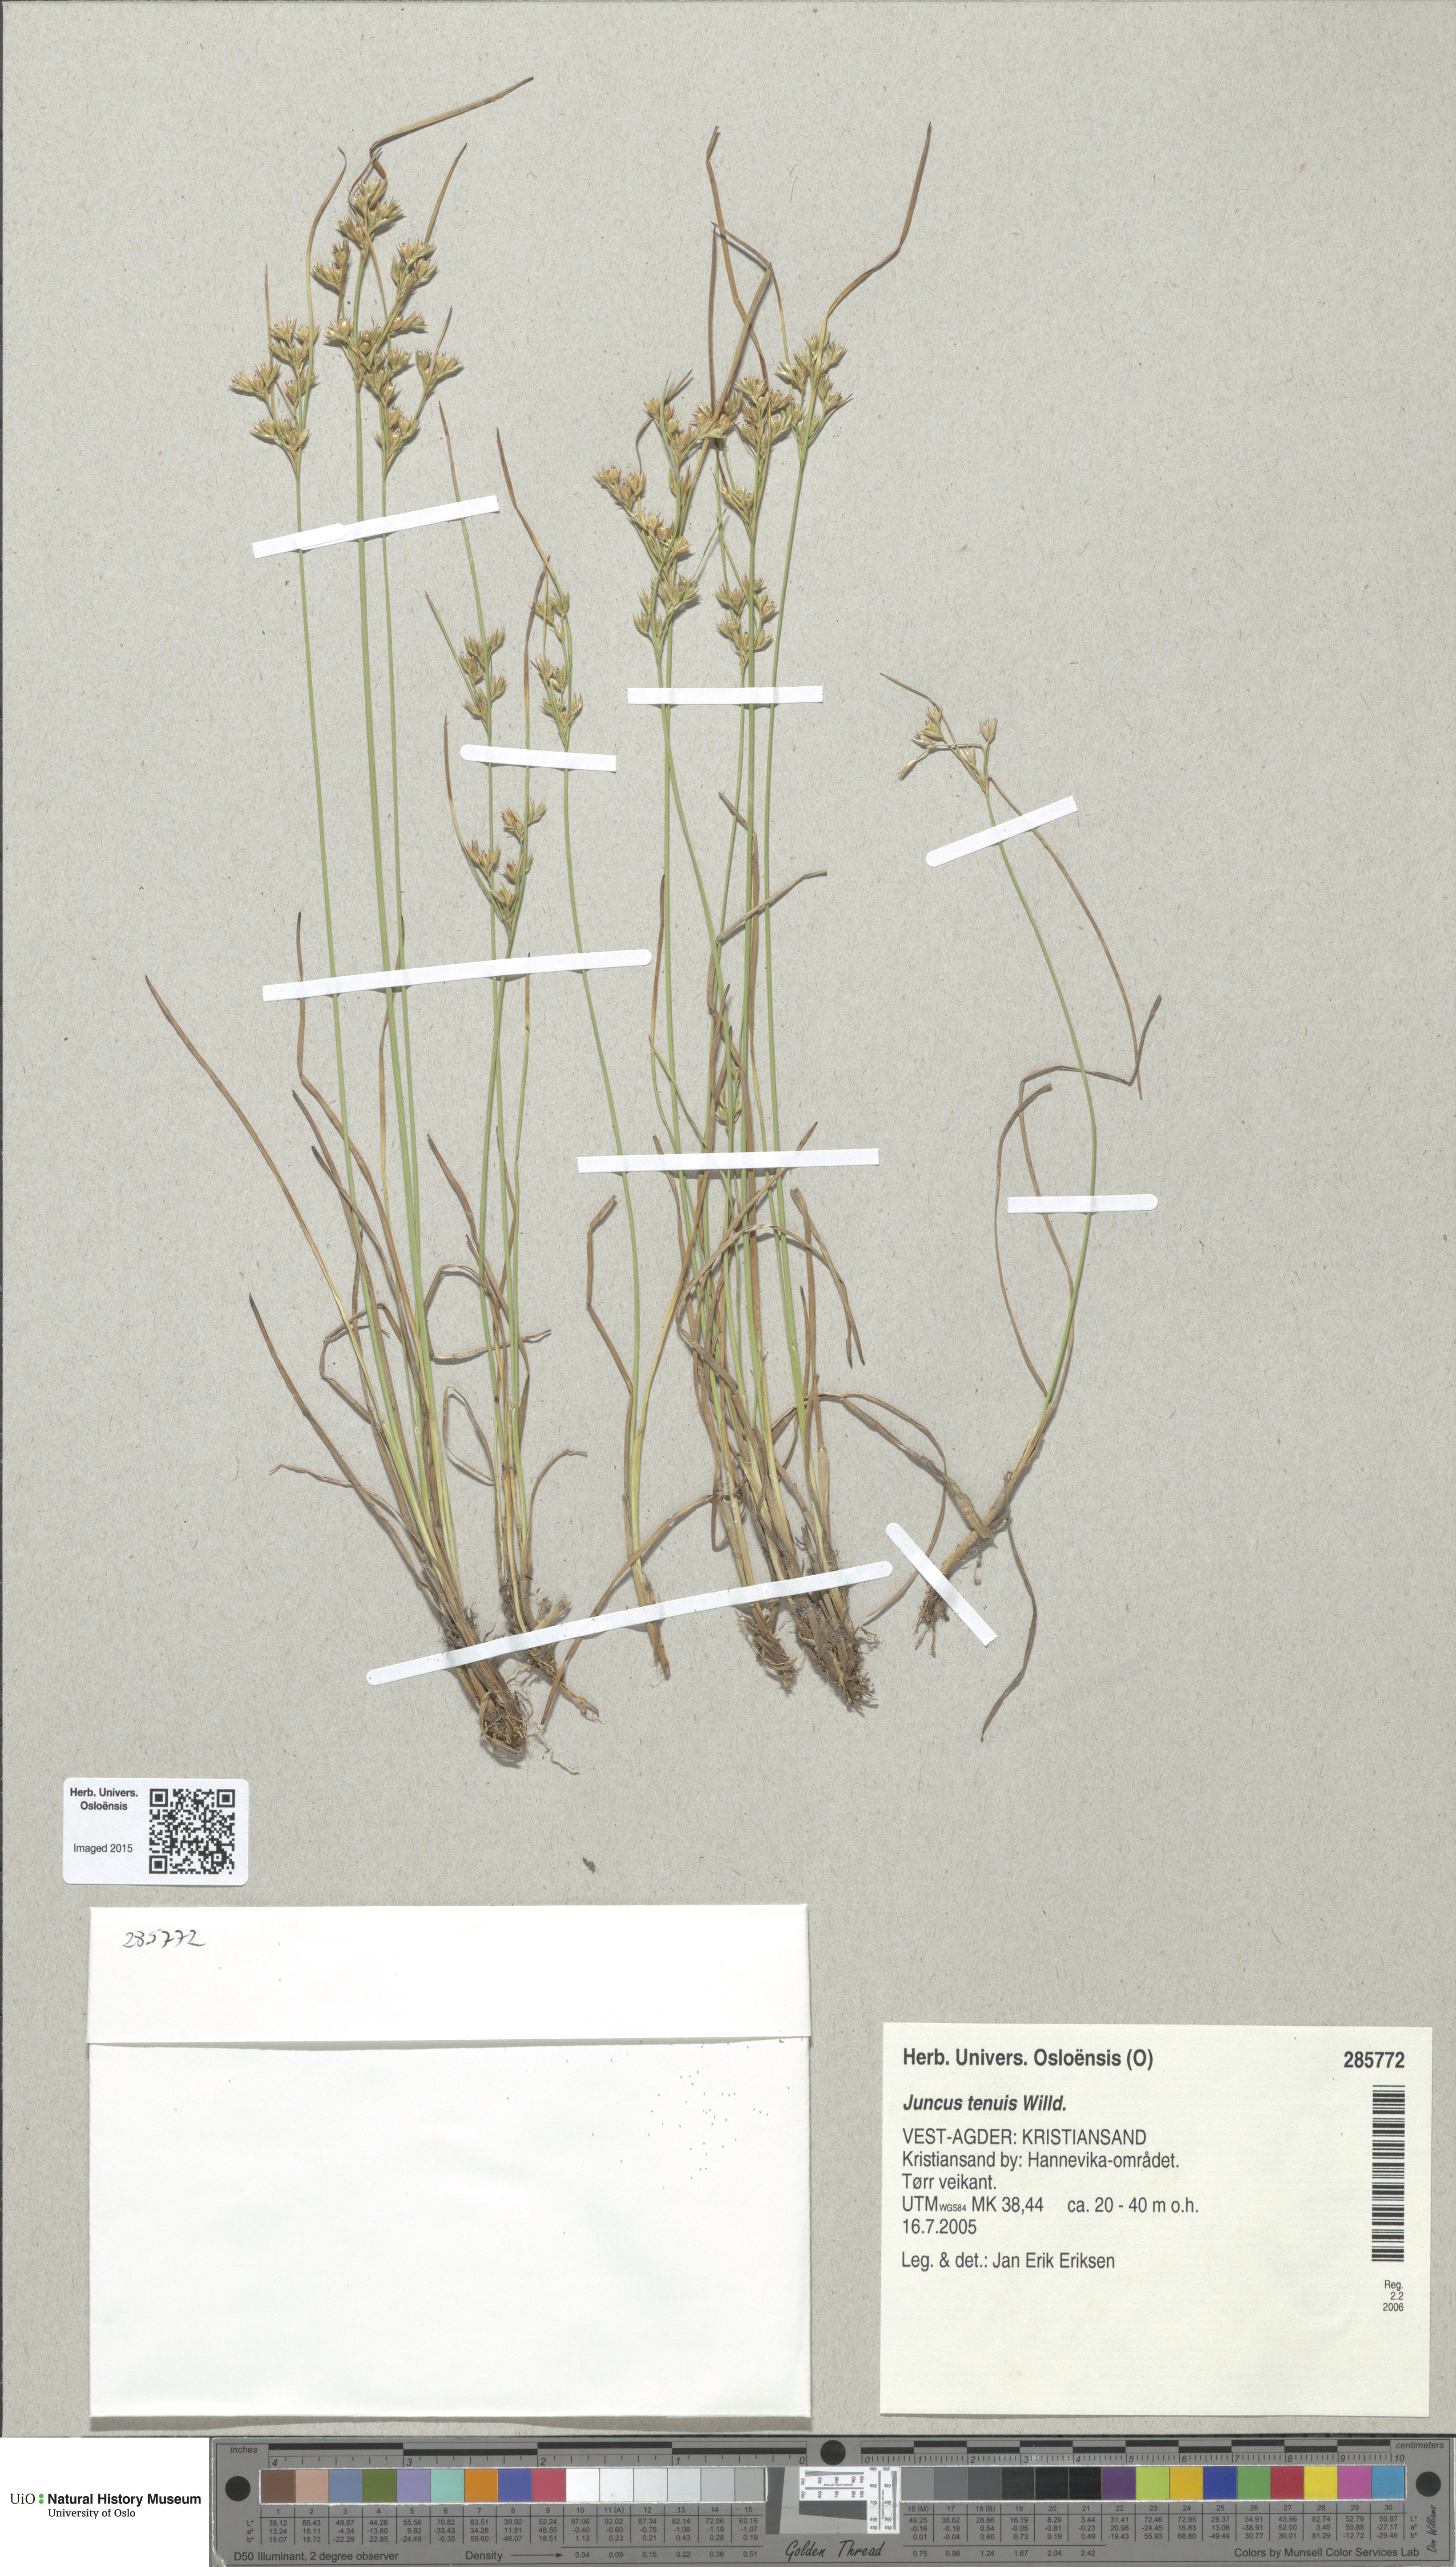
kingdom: Plantae
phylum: Tracheophyta
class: Liliopsida
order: Poales
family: Juncaceae
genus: Juncus
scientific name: Juncus tenuis
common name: Slender rush
